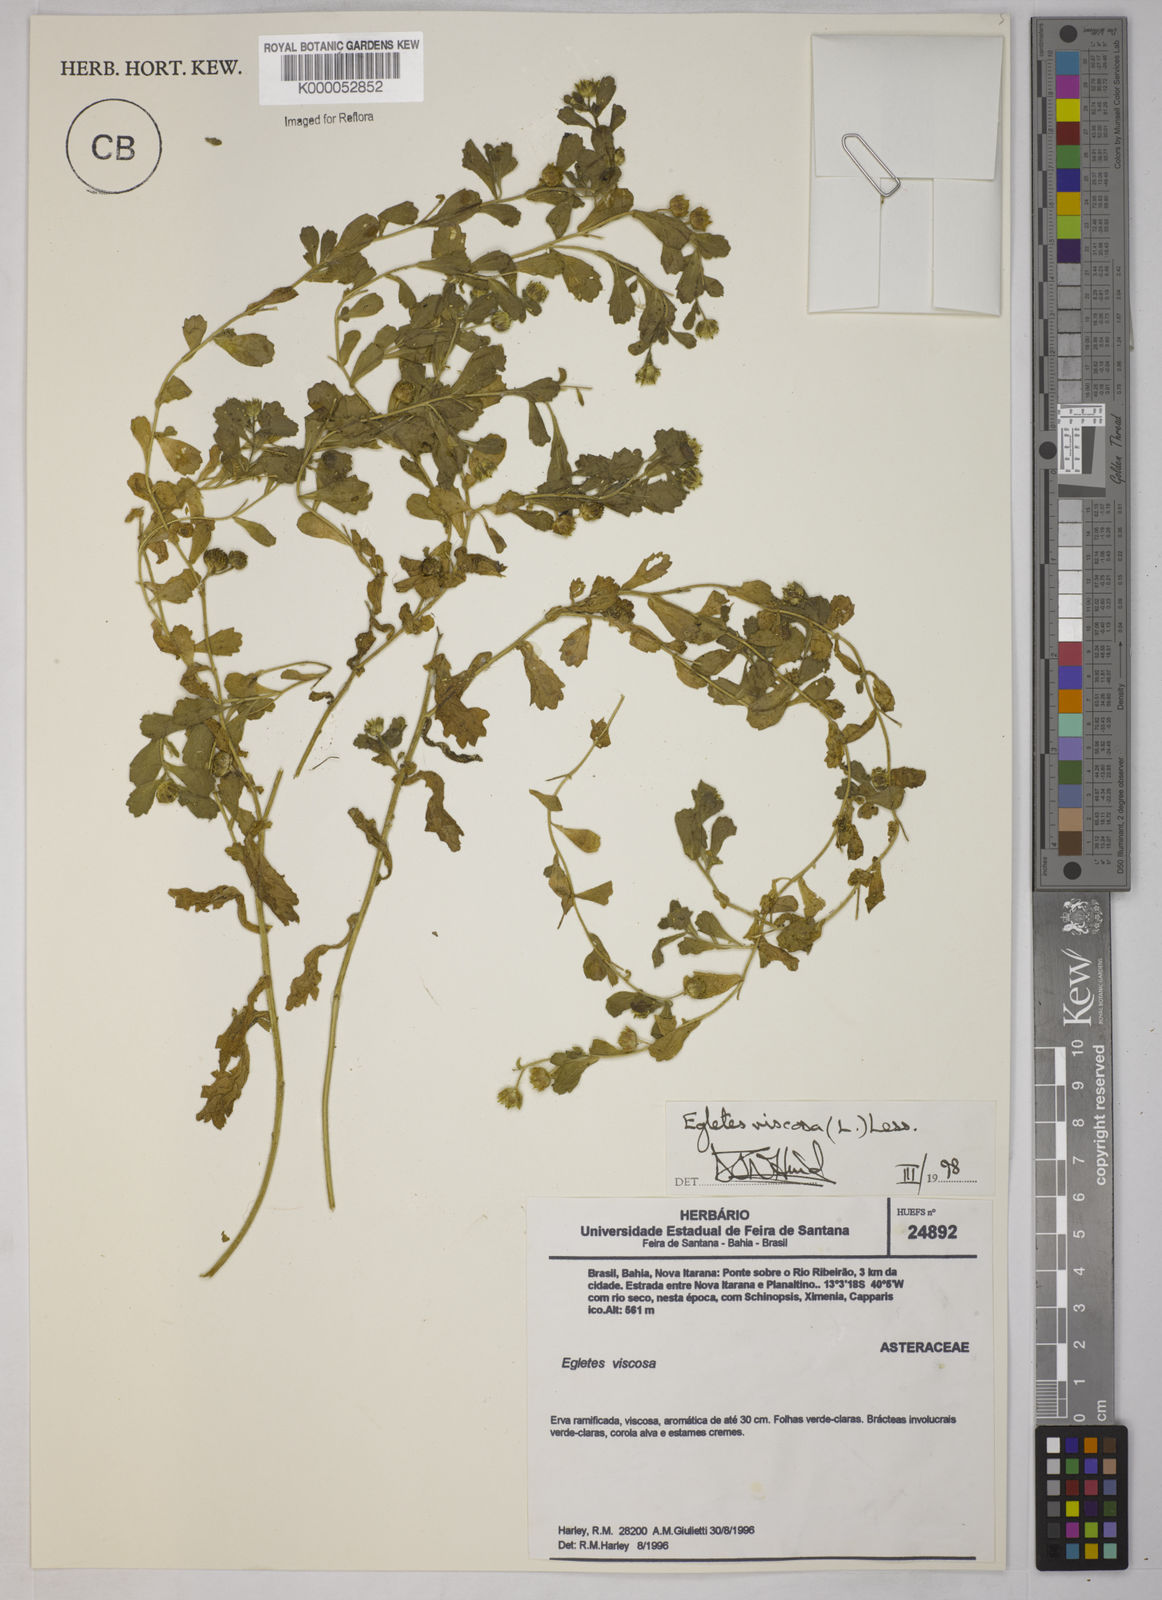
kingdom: Plantae
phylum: Tracheophyta
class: Magnoliopsida
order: Asterales
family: Asteraceae
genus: Egletes
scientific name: Egletes viscosa
